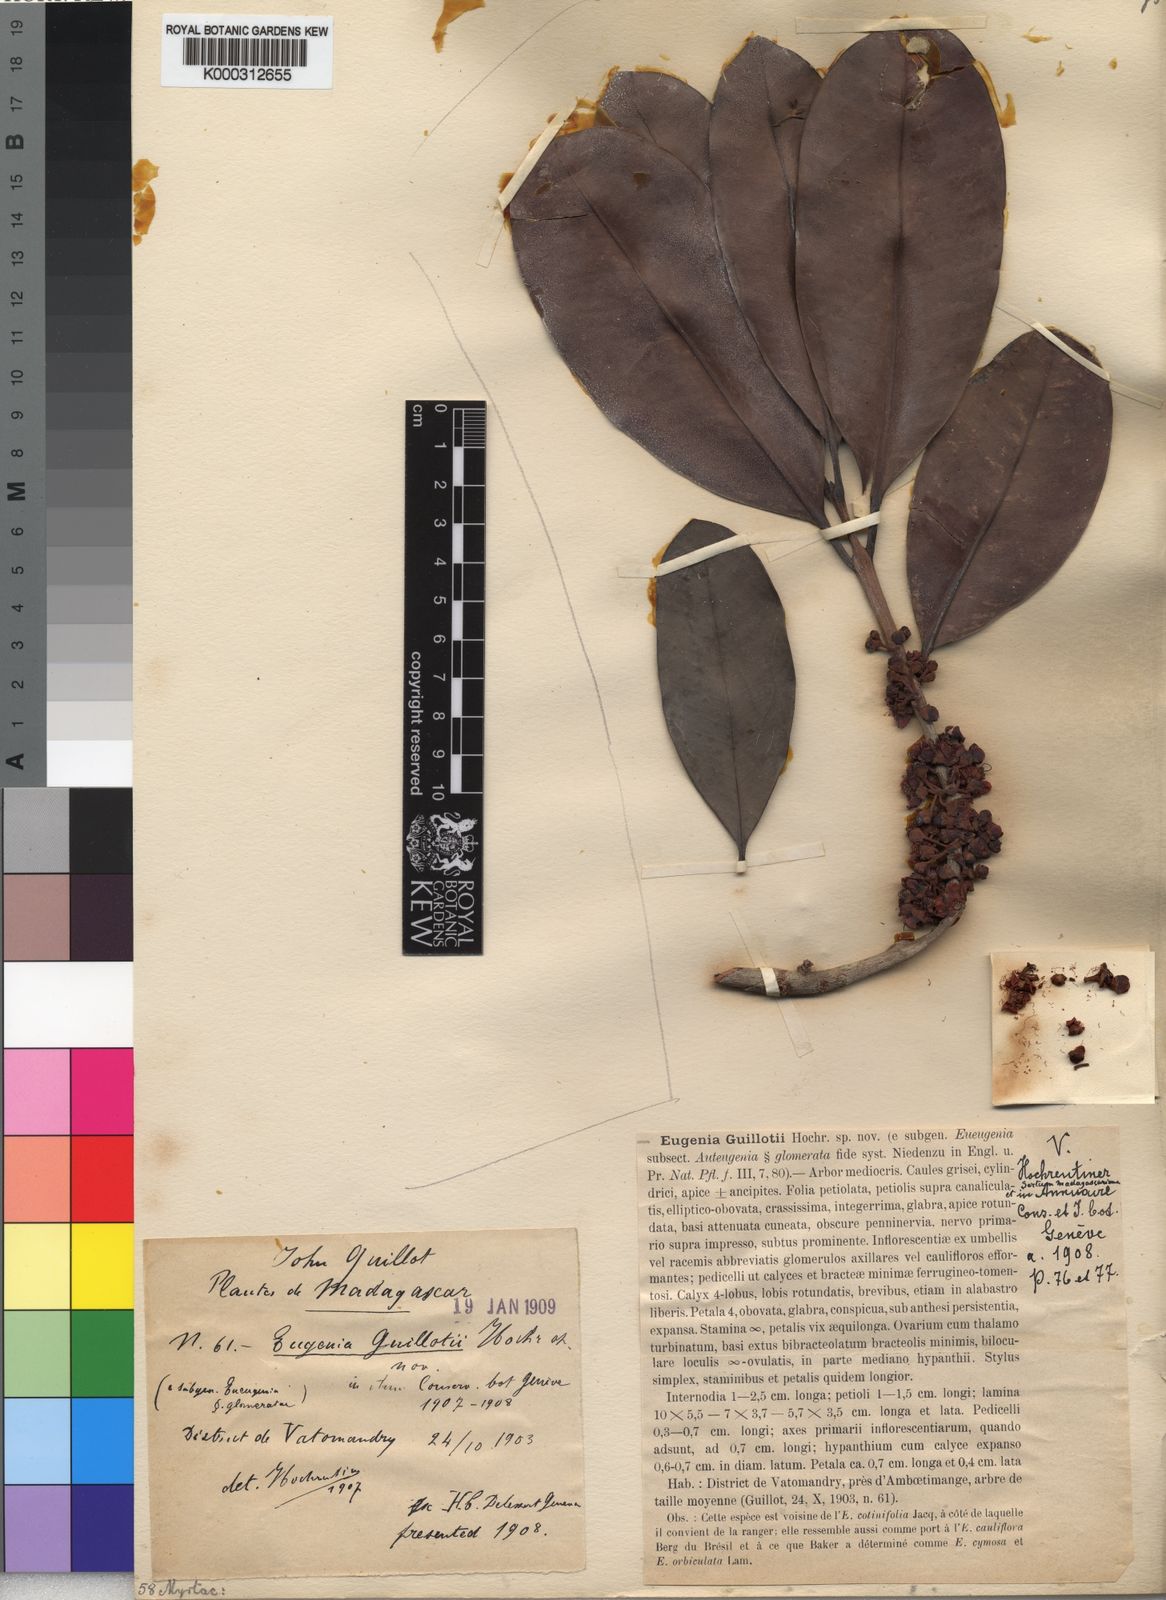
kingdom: Plantae
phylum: Tracheophyta
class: Magnoliopsida
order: Myrtales
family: Myrtaceae
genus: Eugenia
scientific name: Eugenia guillotii
